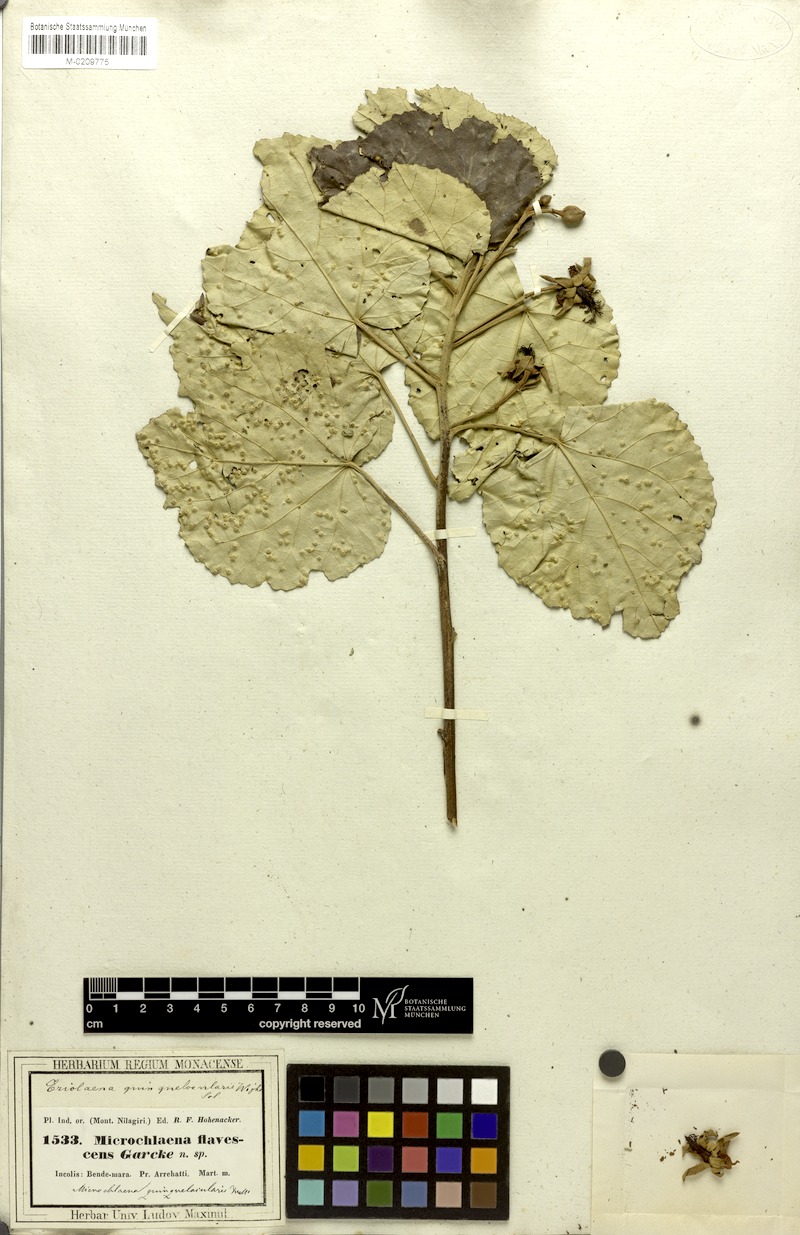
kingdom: Plantae
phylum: Tracheophyta
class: Magnoliopsida
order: Malvales
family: Malvaceae
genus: Eriolaena
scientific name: Eriolaena quinquelocularis
